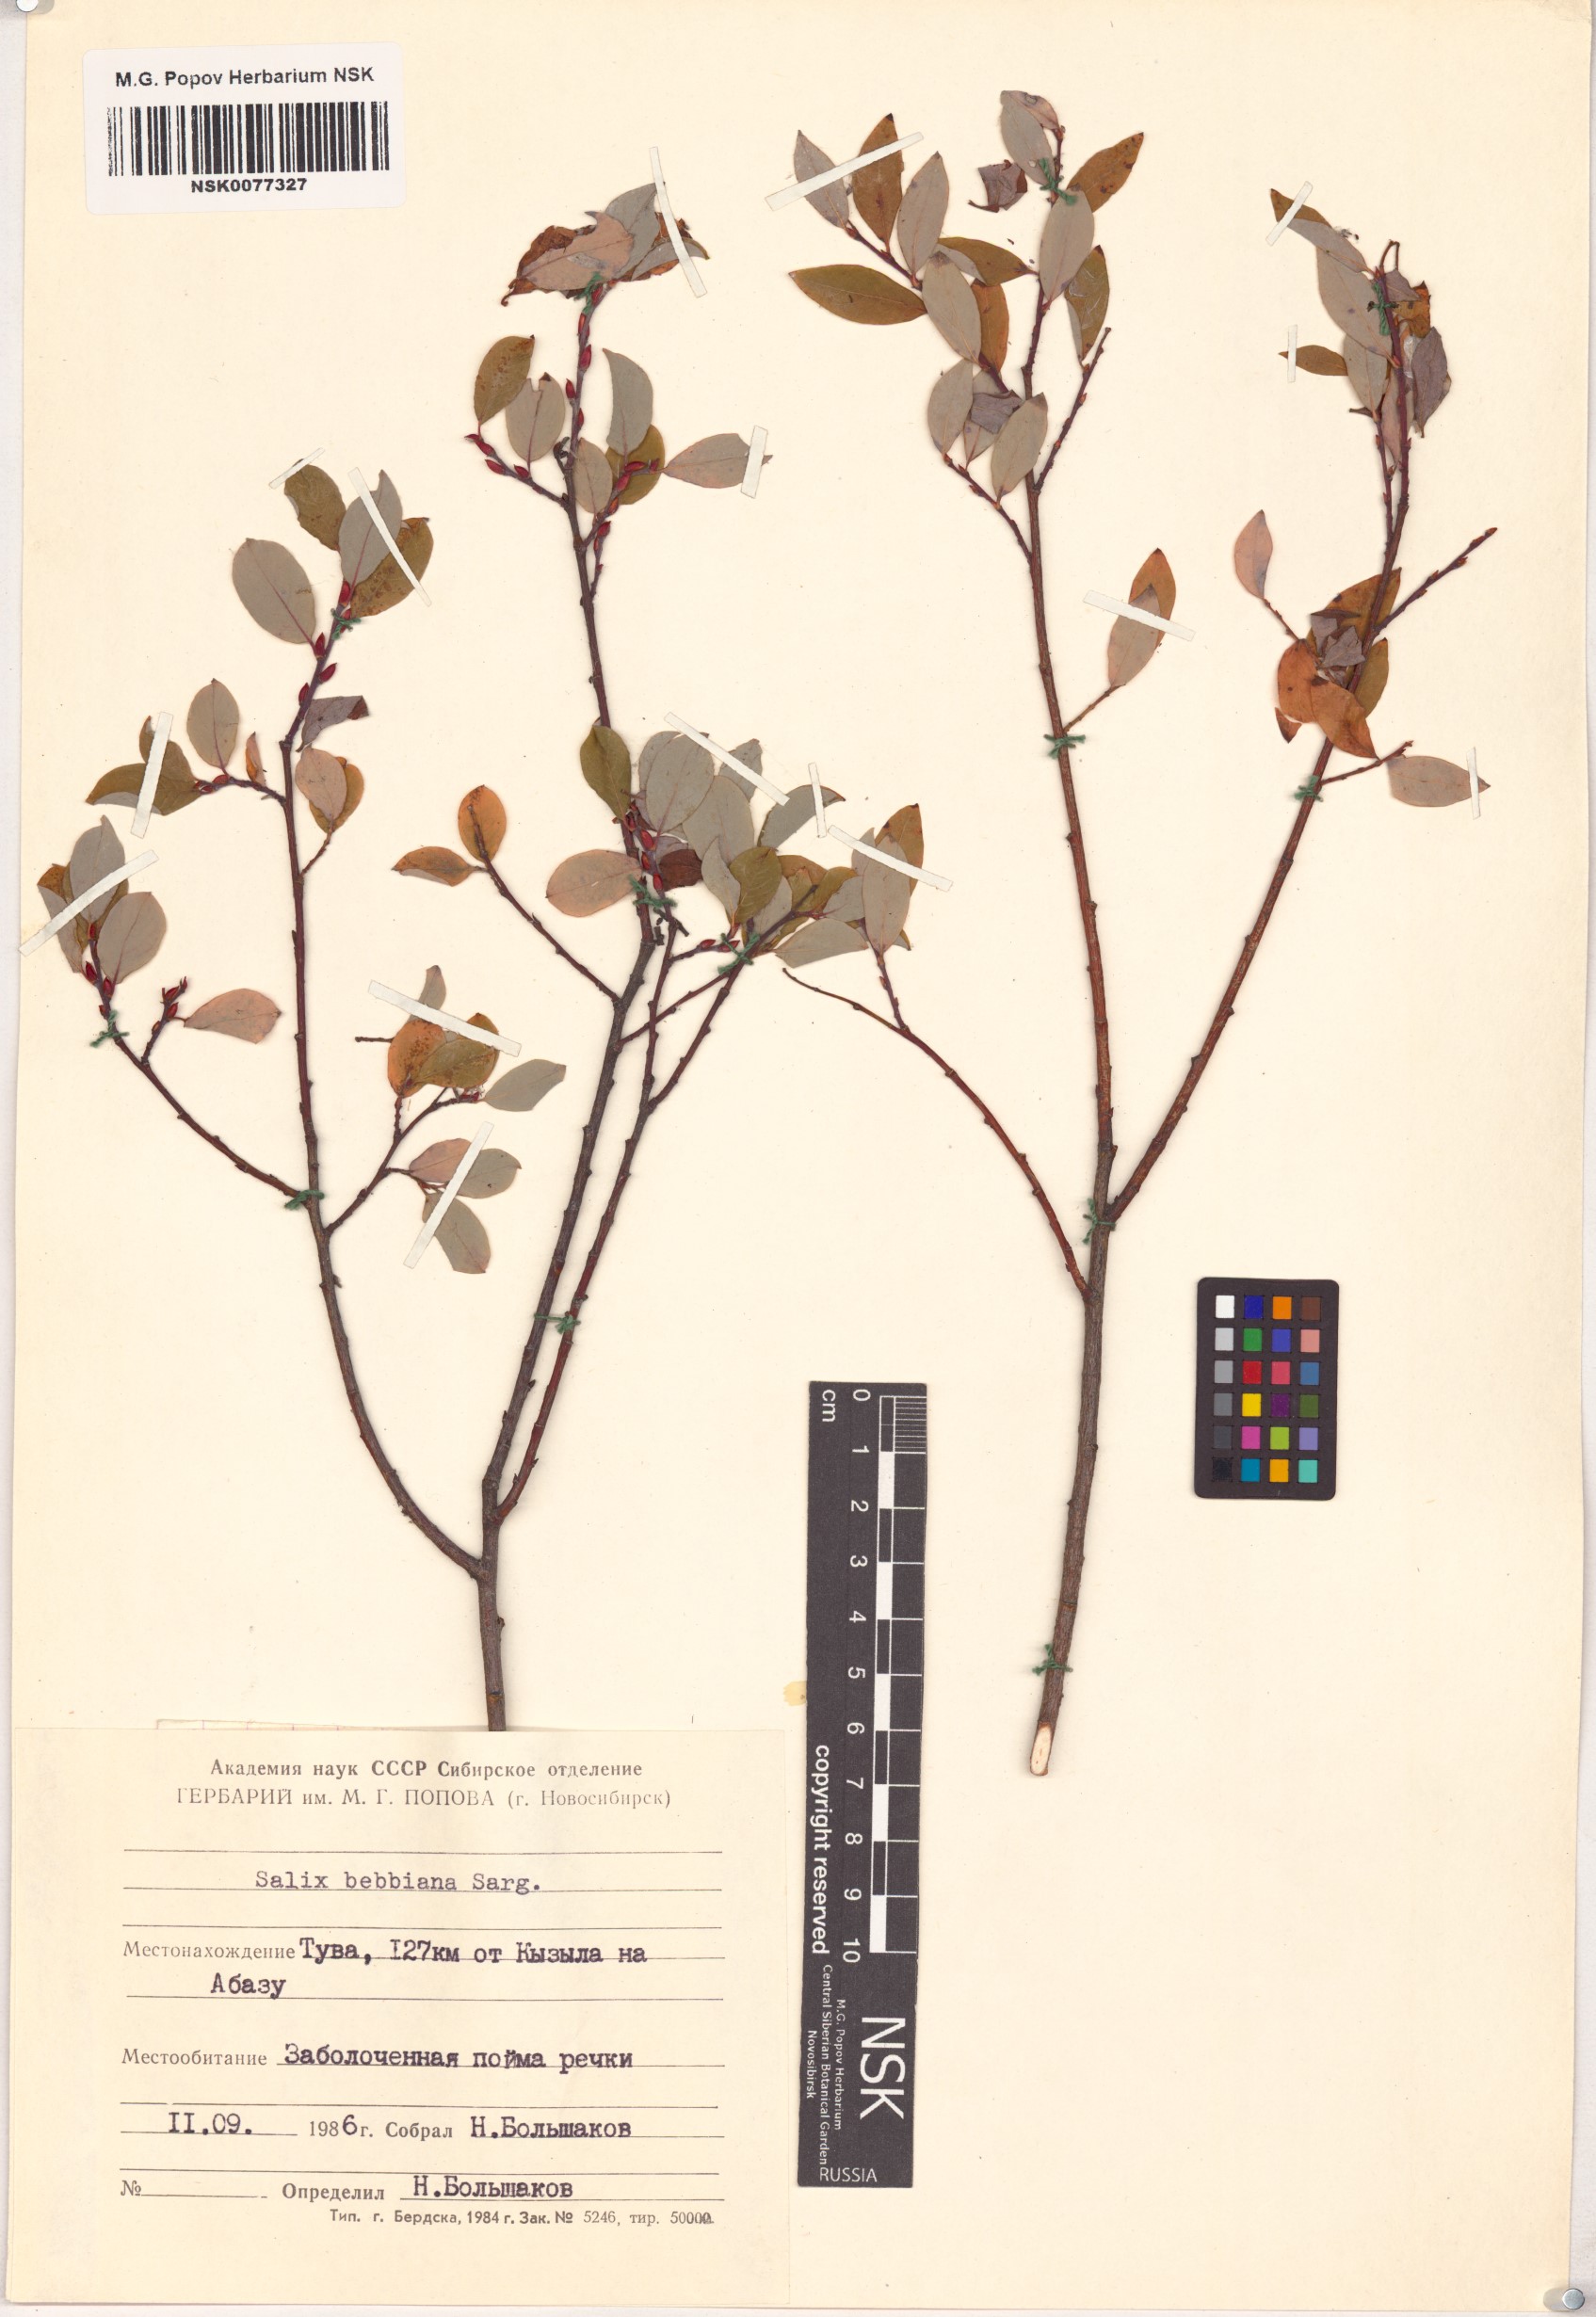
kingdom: Plantae
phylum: Tracheophyta
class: Magnoliopsida
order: Malpighiales
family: Salicaceae
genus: Salix
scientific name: Salix bebbiana
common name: Bebb's willow
